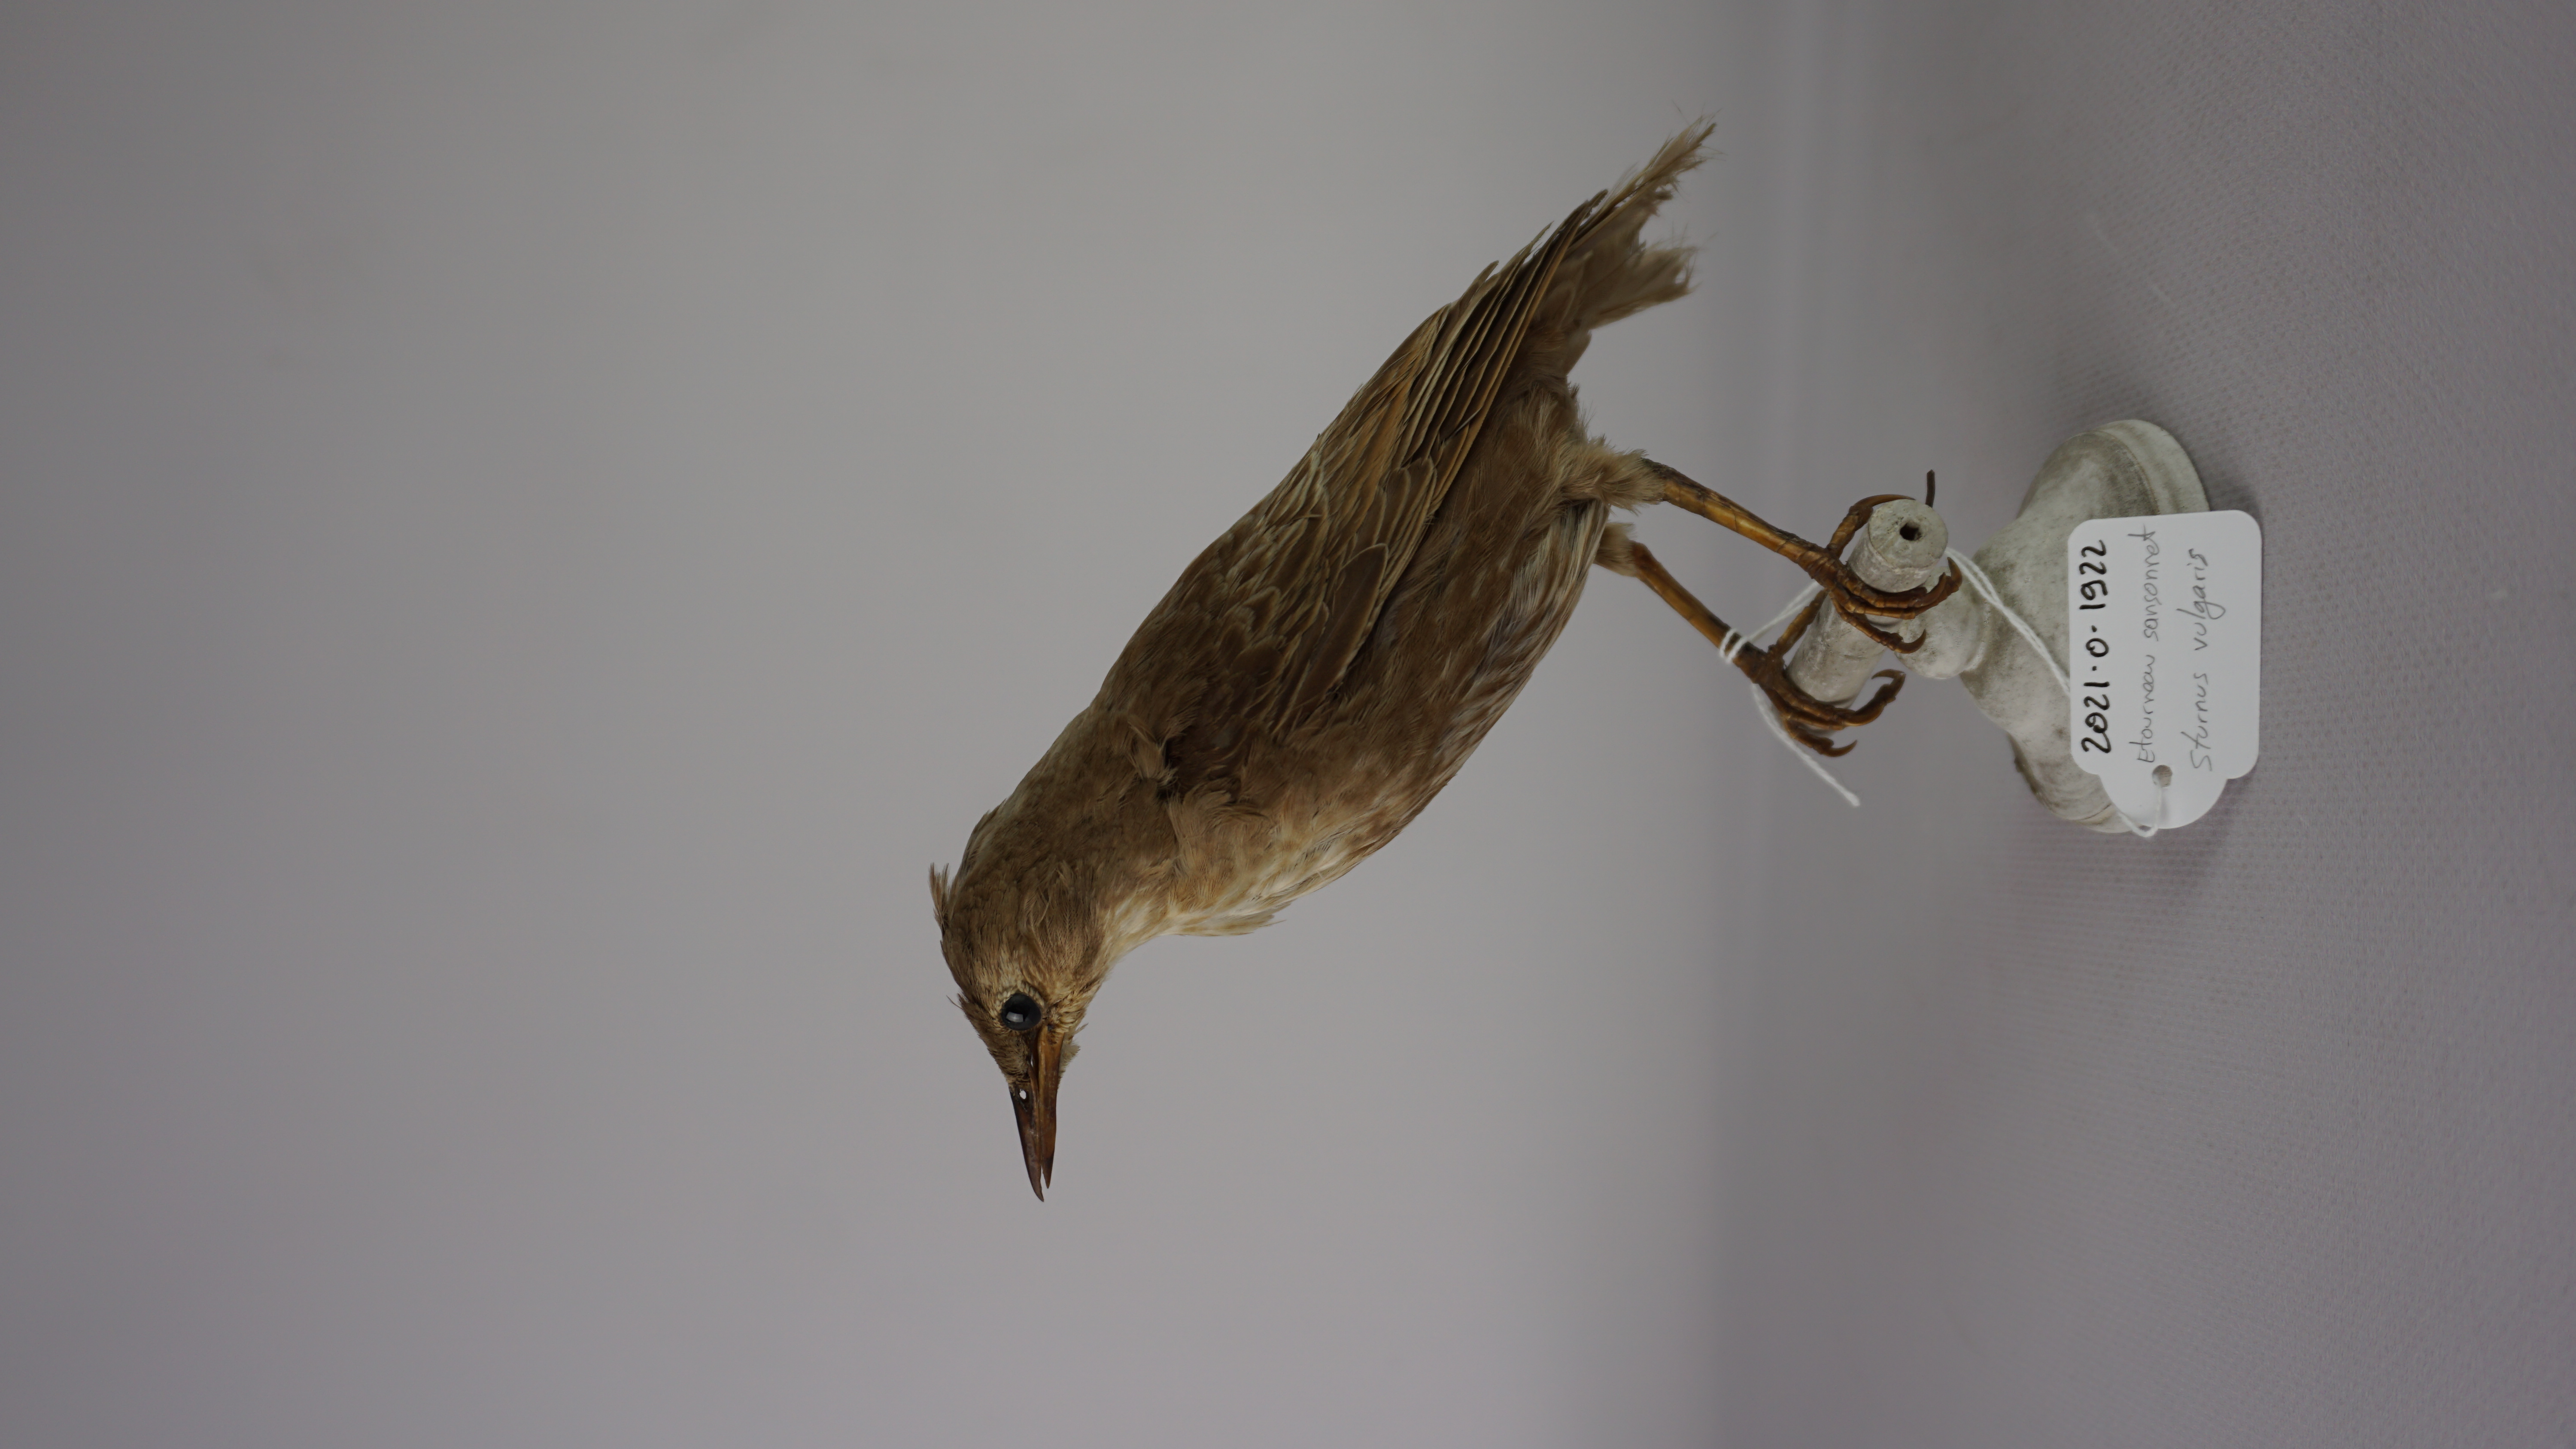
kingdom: Animalia
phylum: Chordata
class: Aves
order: Passeriformes
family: Sturnidae
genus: Sturnus
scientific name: Sturnus vulgaris
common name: Common starling
